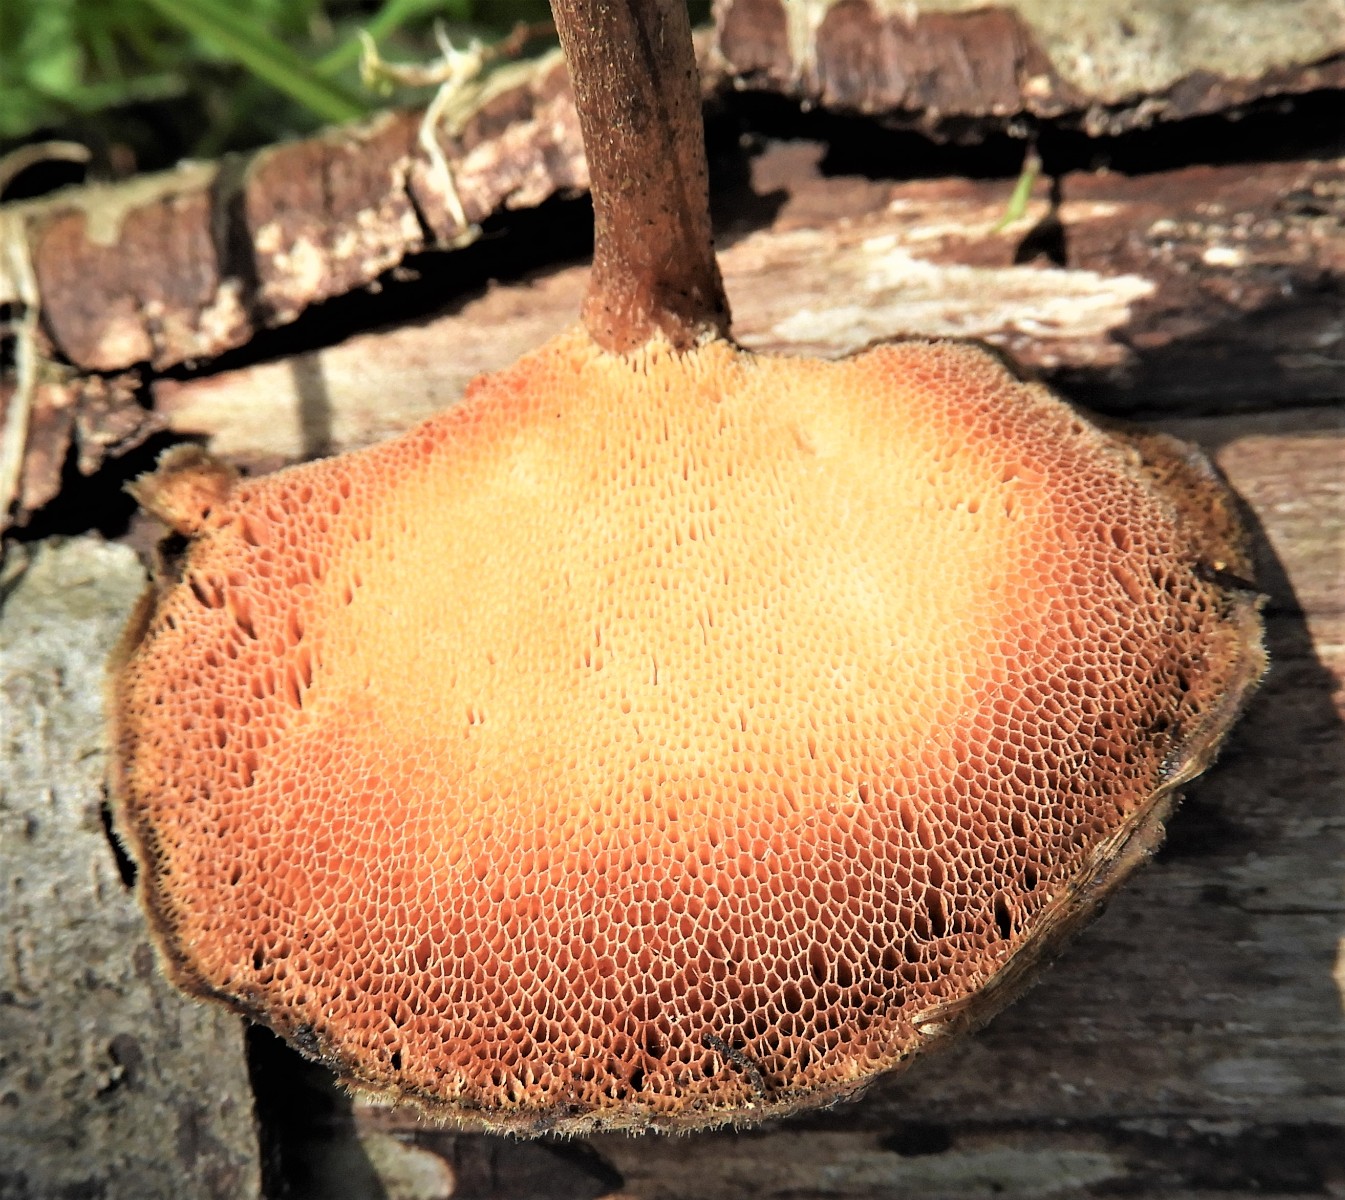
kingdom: Fungi
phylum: Basidiomycota
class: Agaricomycetes
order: Polyporales
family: Polyporaceae
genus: Lentinus
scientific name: Lentinus brumalis
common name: vinter-stilkporesvamp
